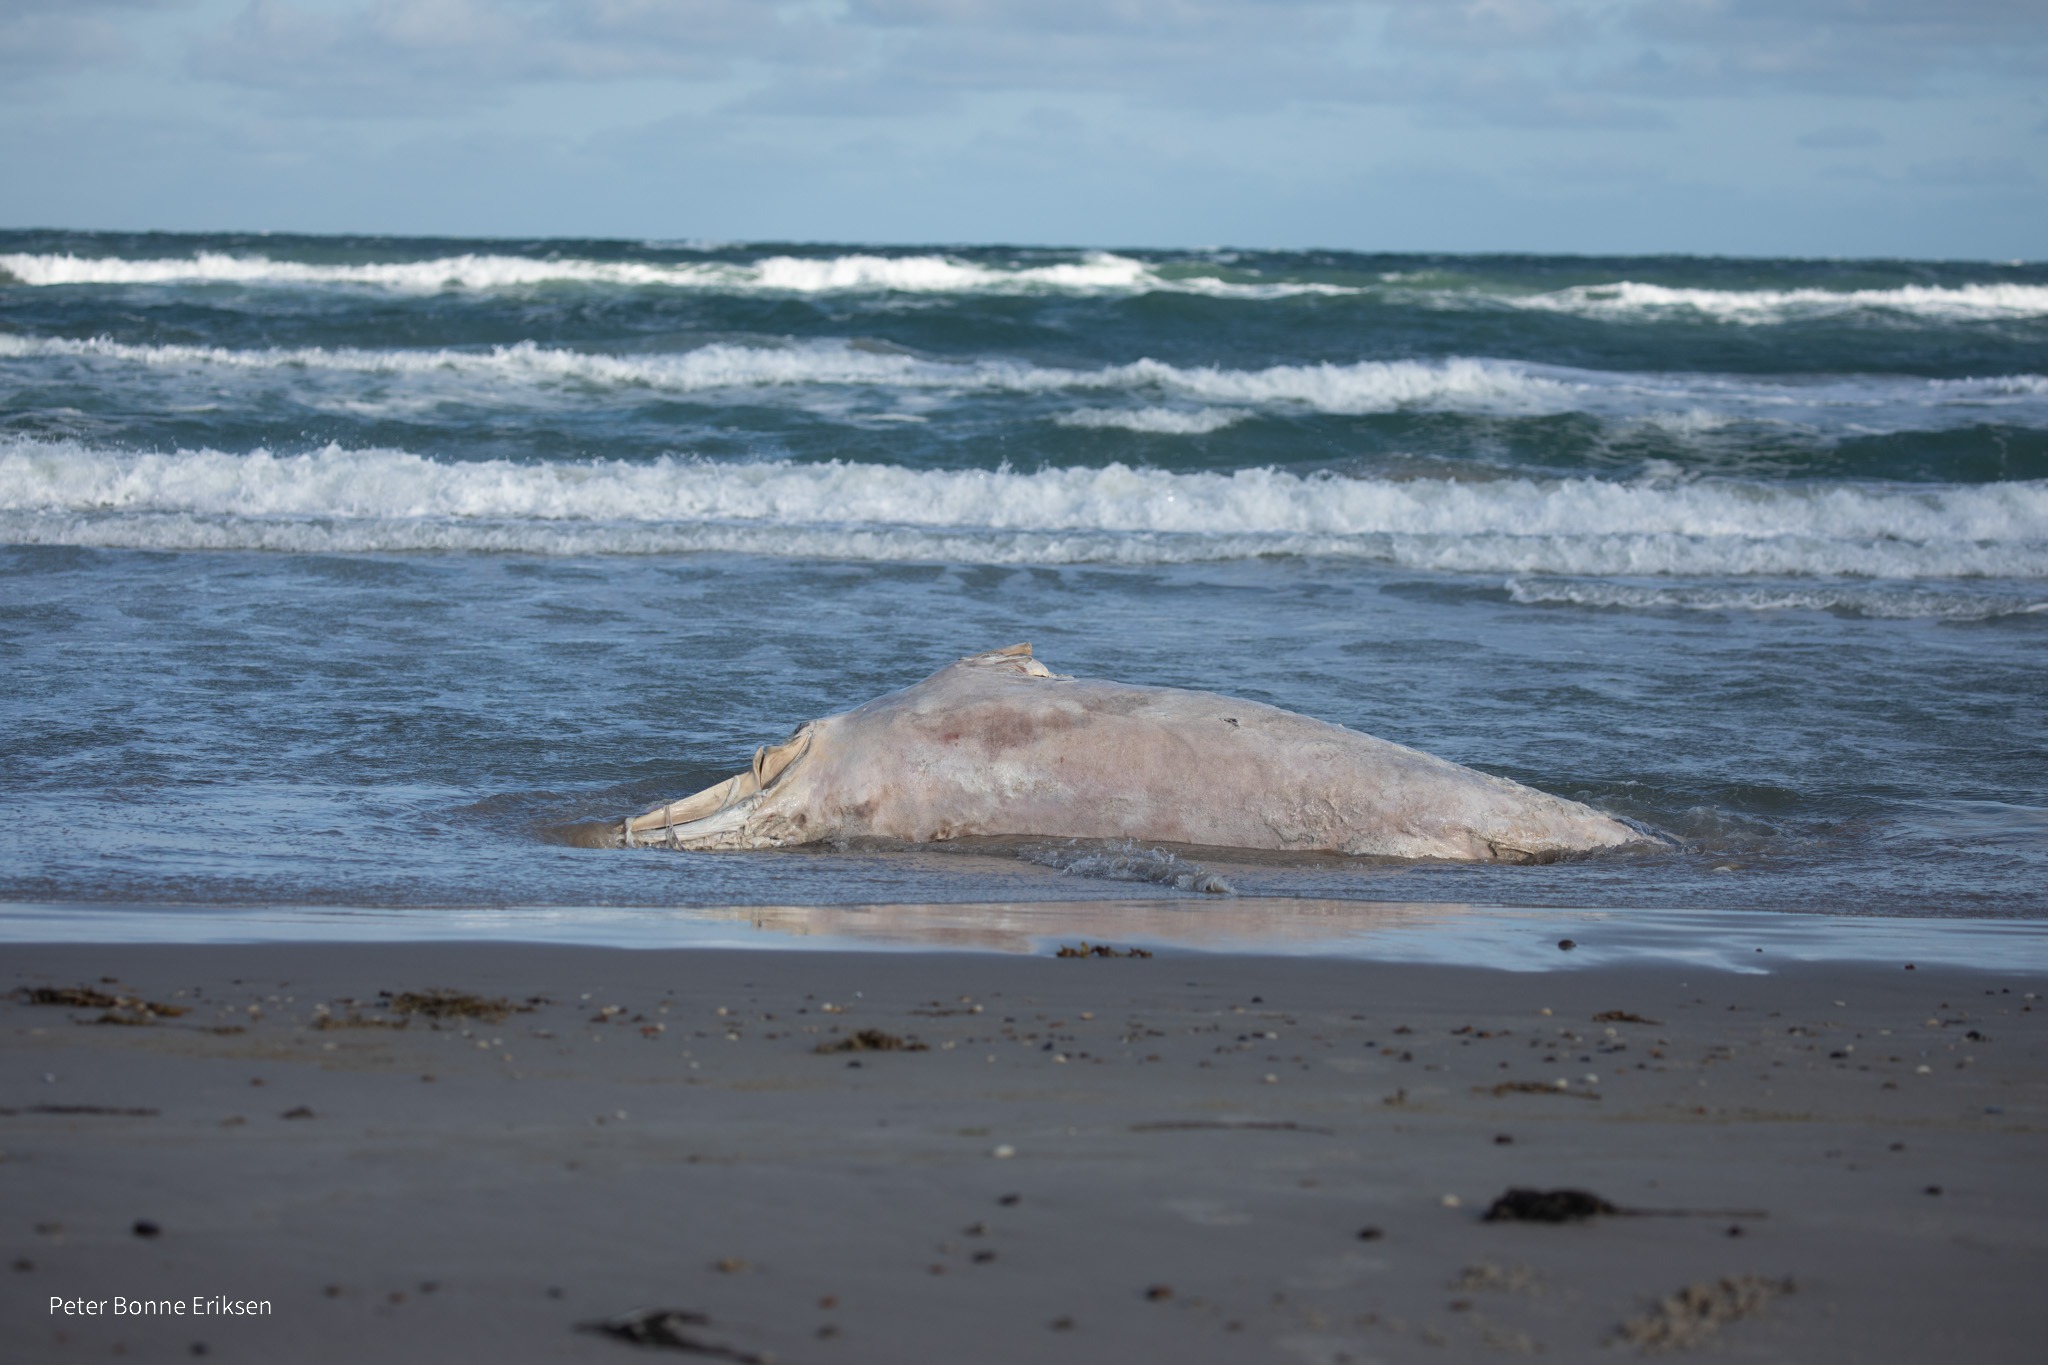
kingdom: Animalia
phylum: Chordata
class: Mammalia
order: Cetacea
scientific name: Cetacea
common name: Hvaler
